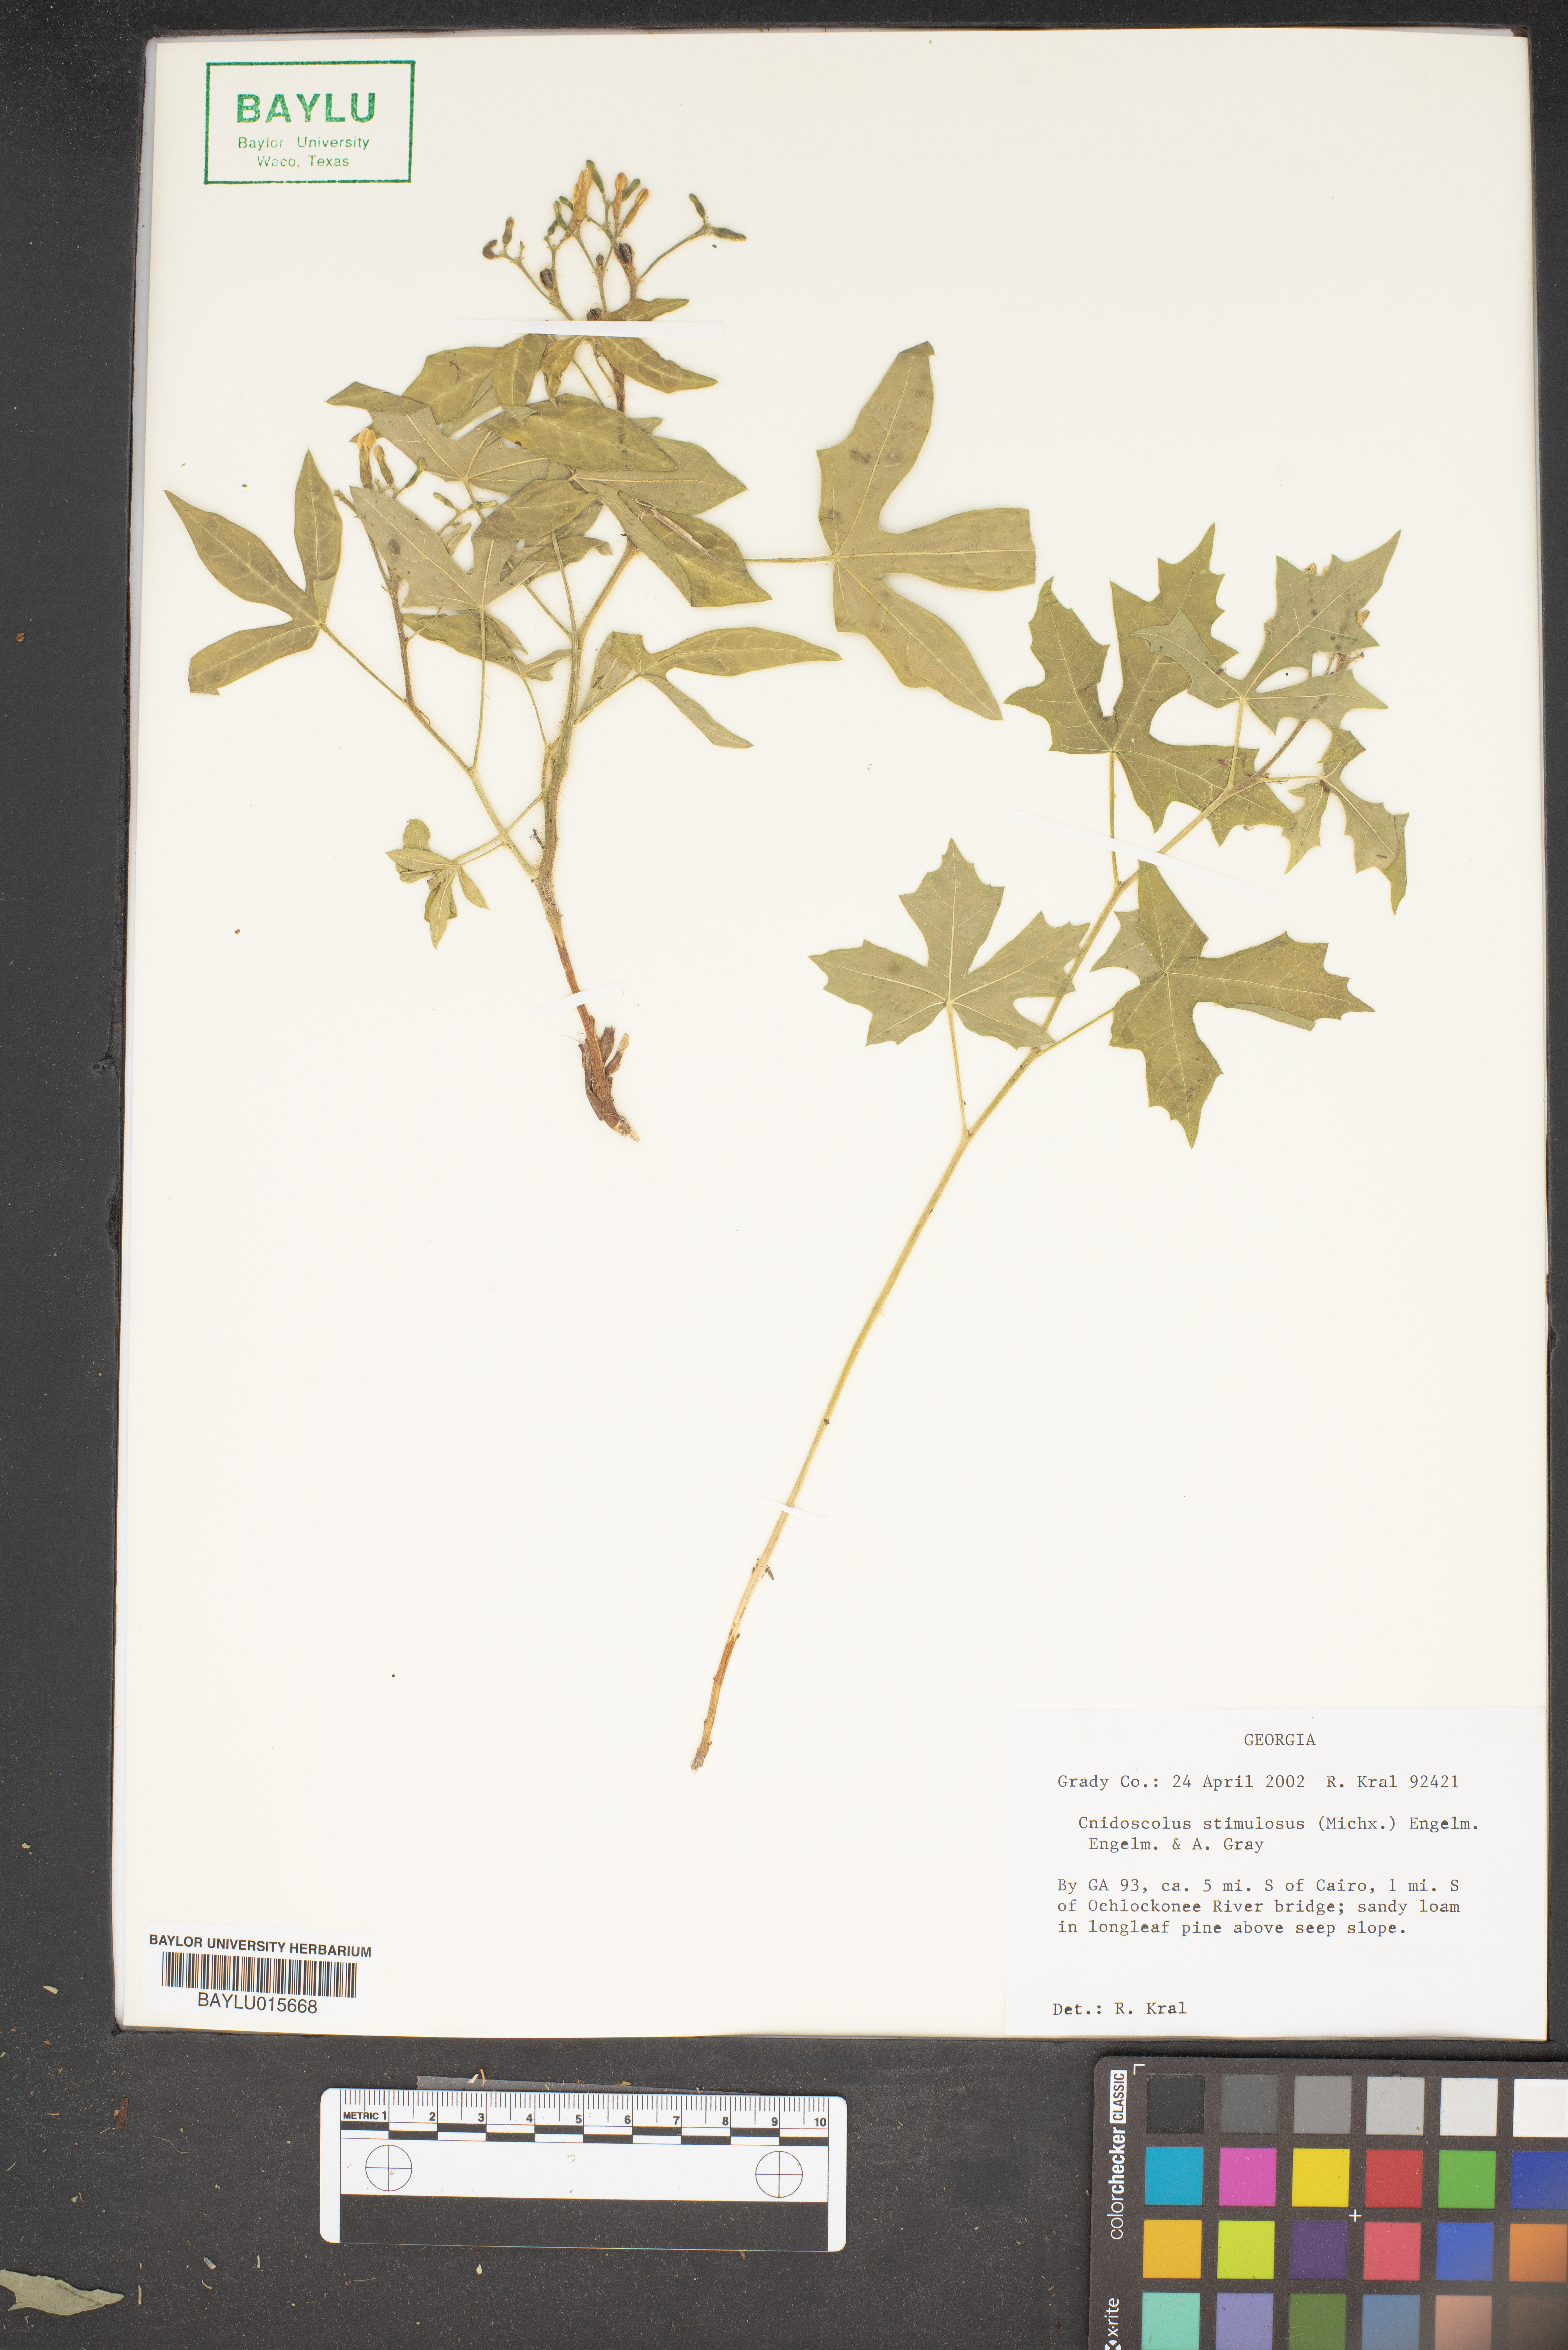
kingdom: Plantae
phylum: Tracheophyta
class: Magnoliopsida
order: Malpighiales
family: Euphorbiaceae
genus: Cnidoscolus
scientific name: Cnidoscolus stimulosus
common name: Bull-nettle
